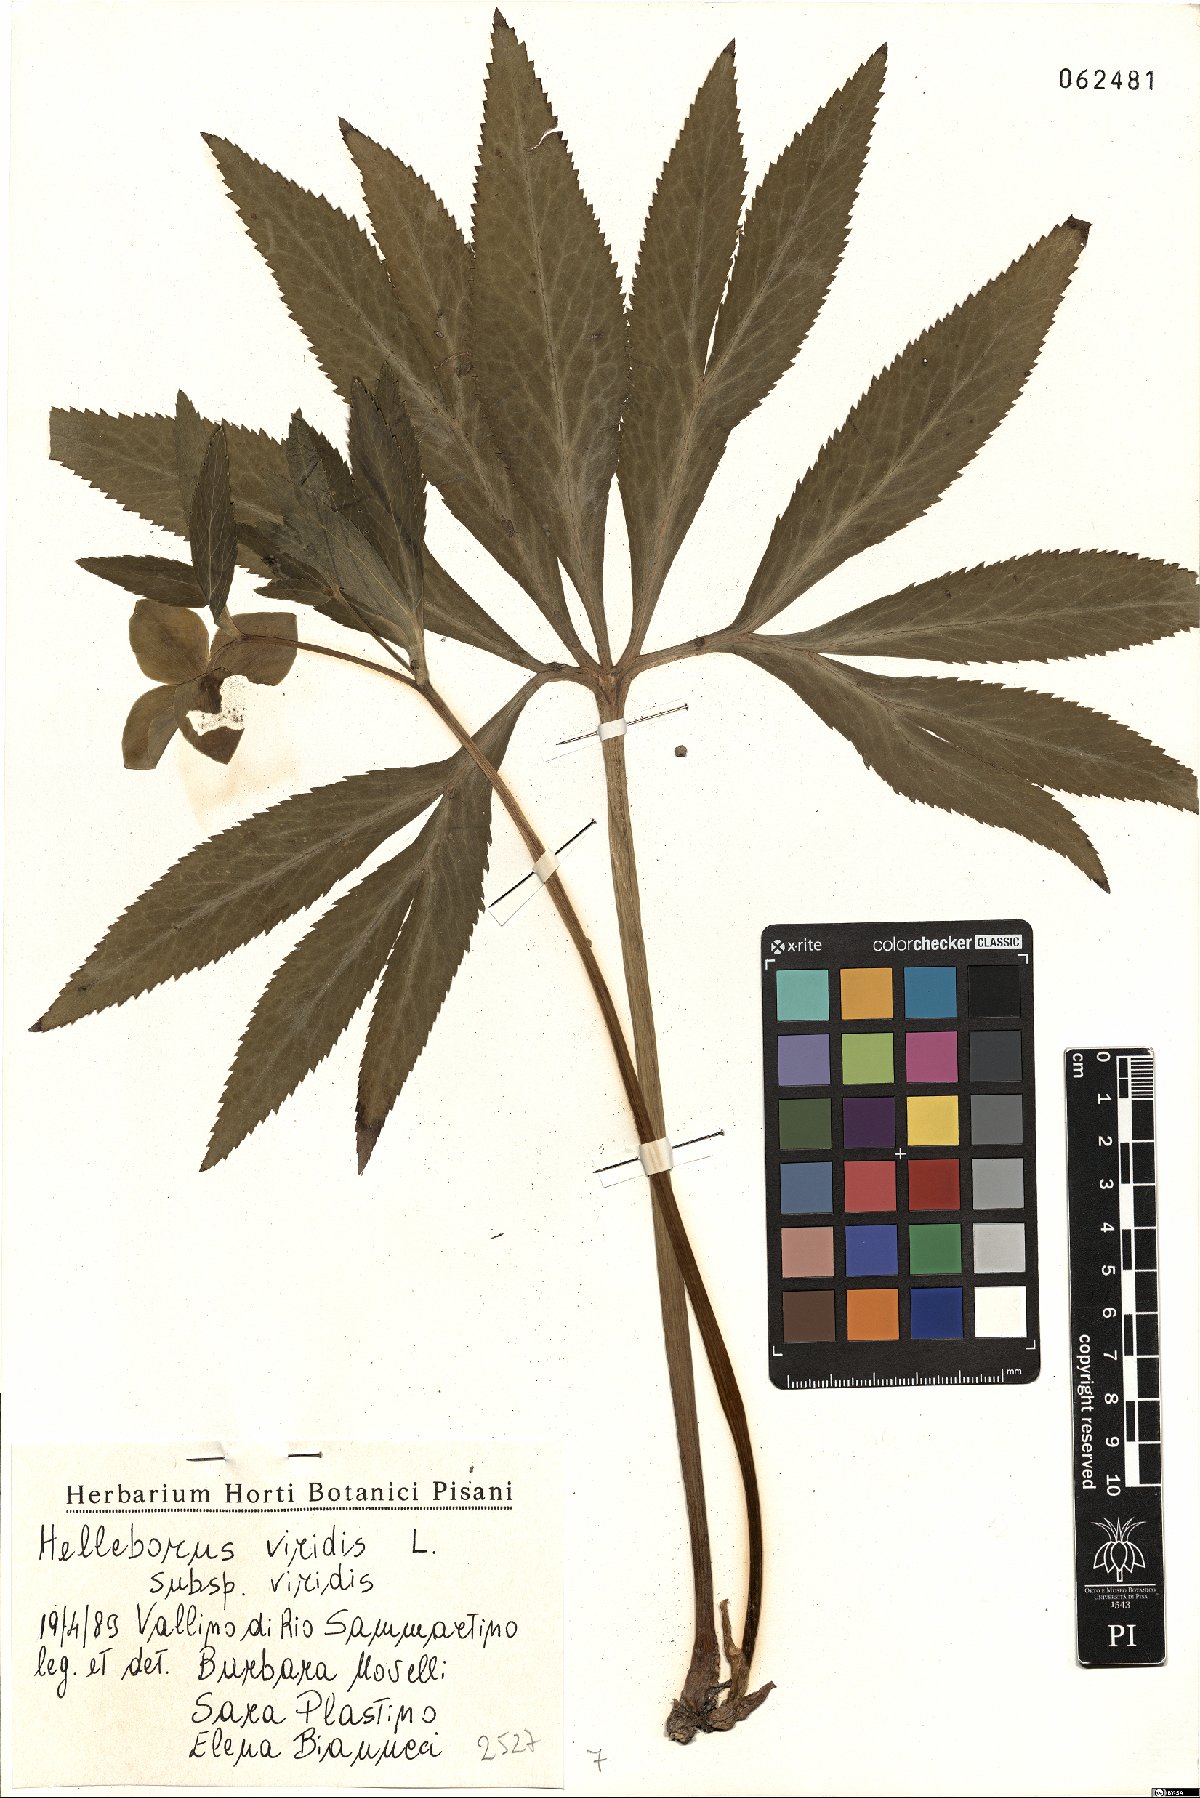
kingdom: Plantae
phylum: Tracheophyta
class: Magnoliopsida
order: Ranunculales
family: Ranunculaceae
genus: Helleborus
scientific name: Helleborus viridis
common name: Green hellebore
